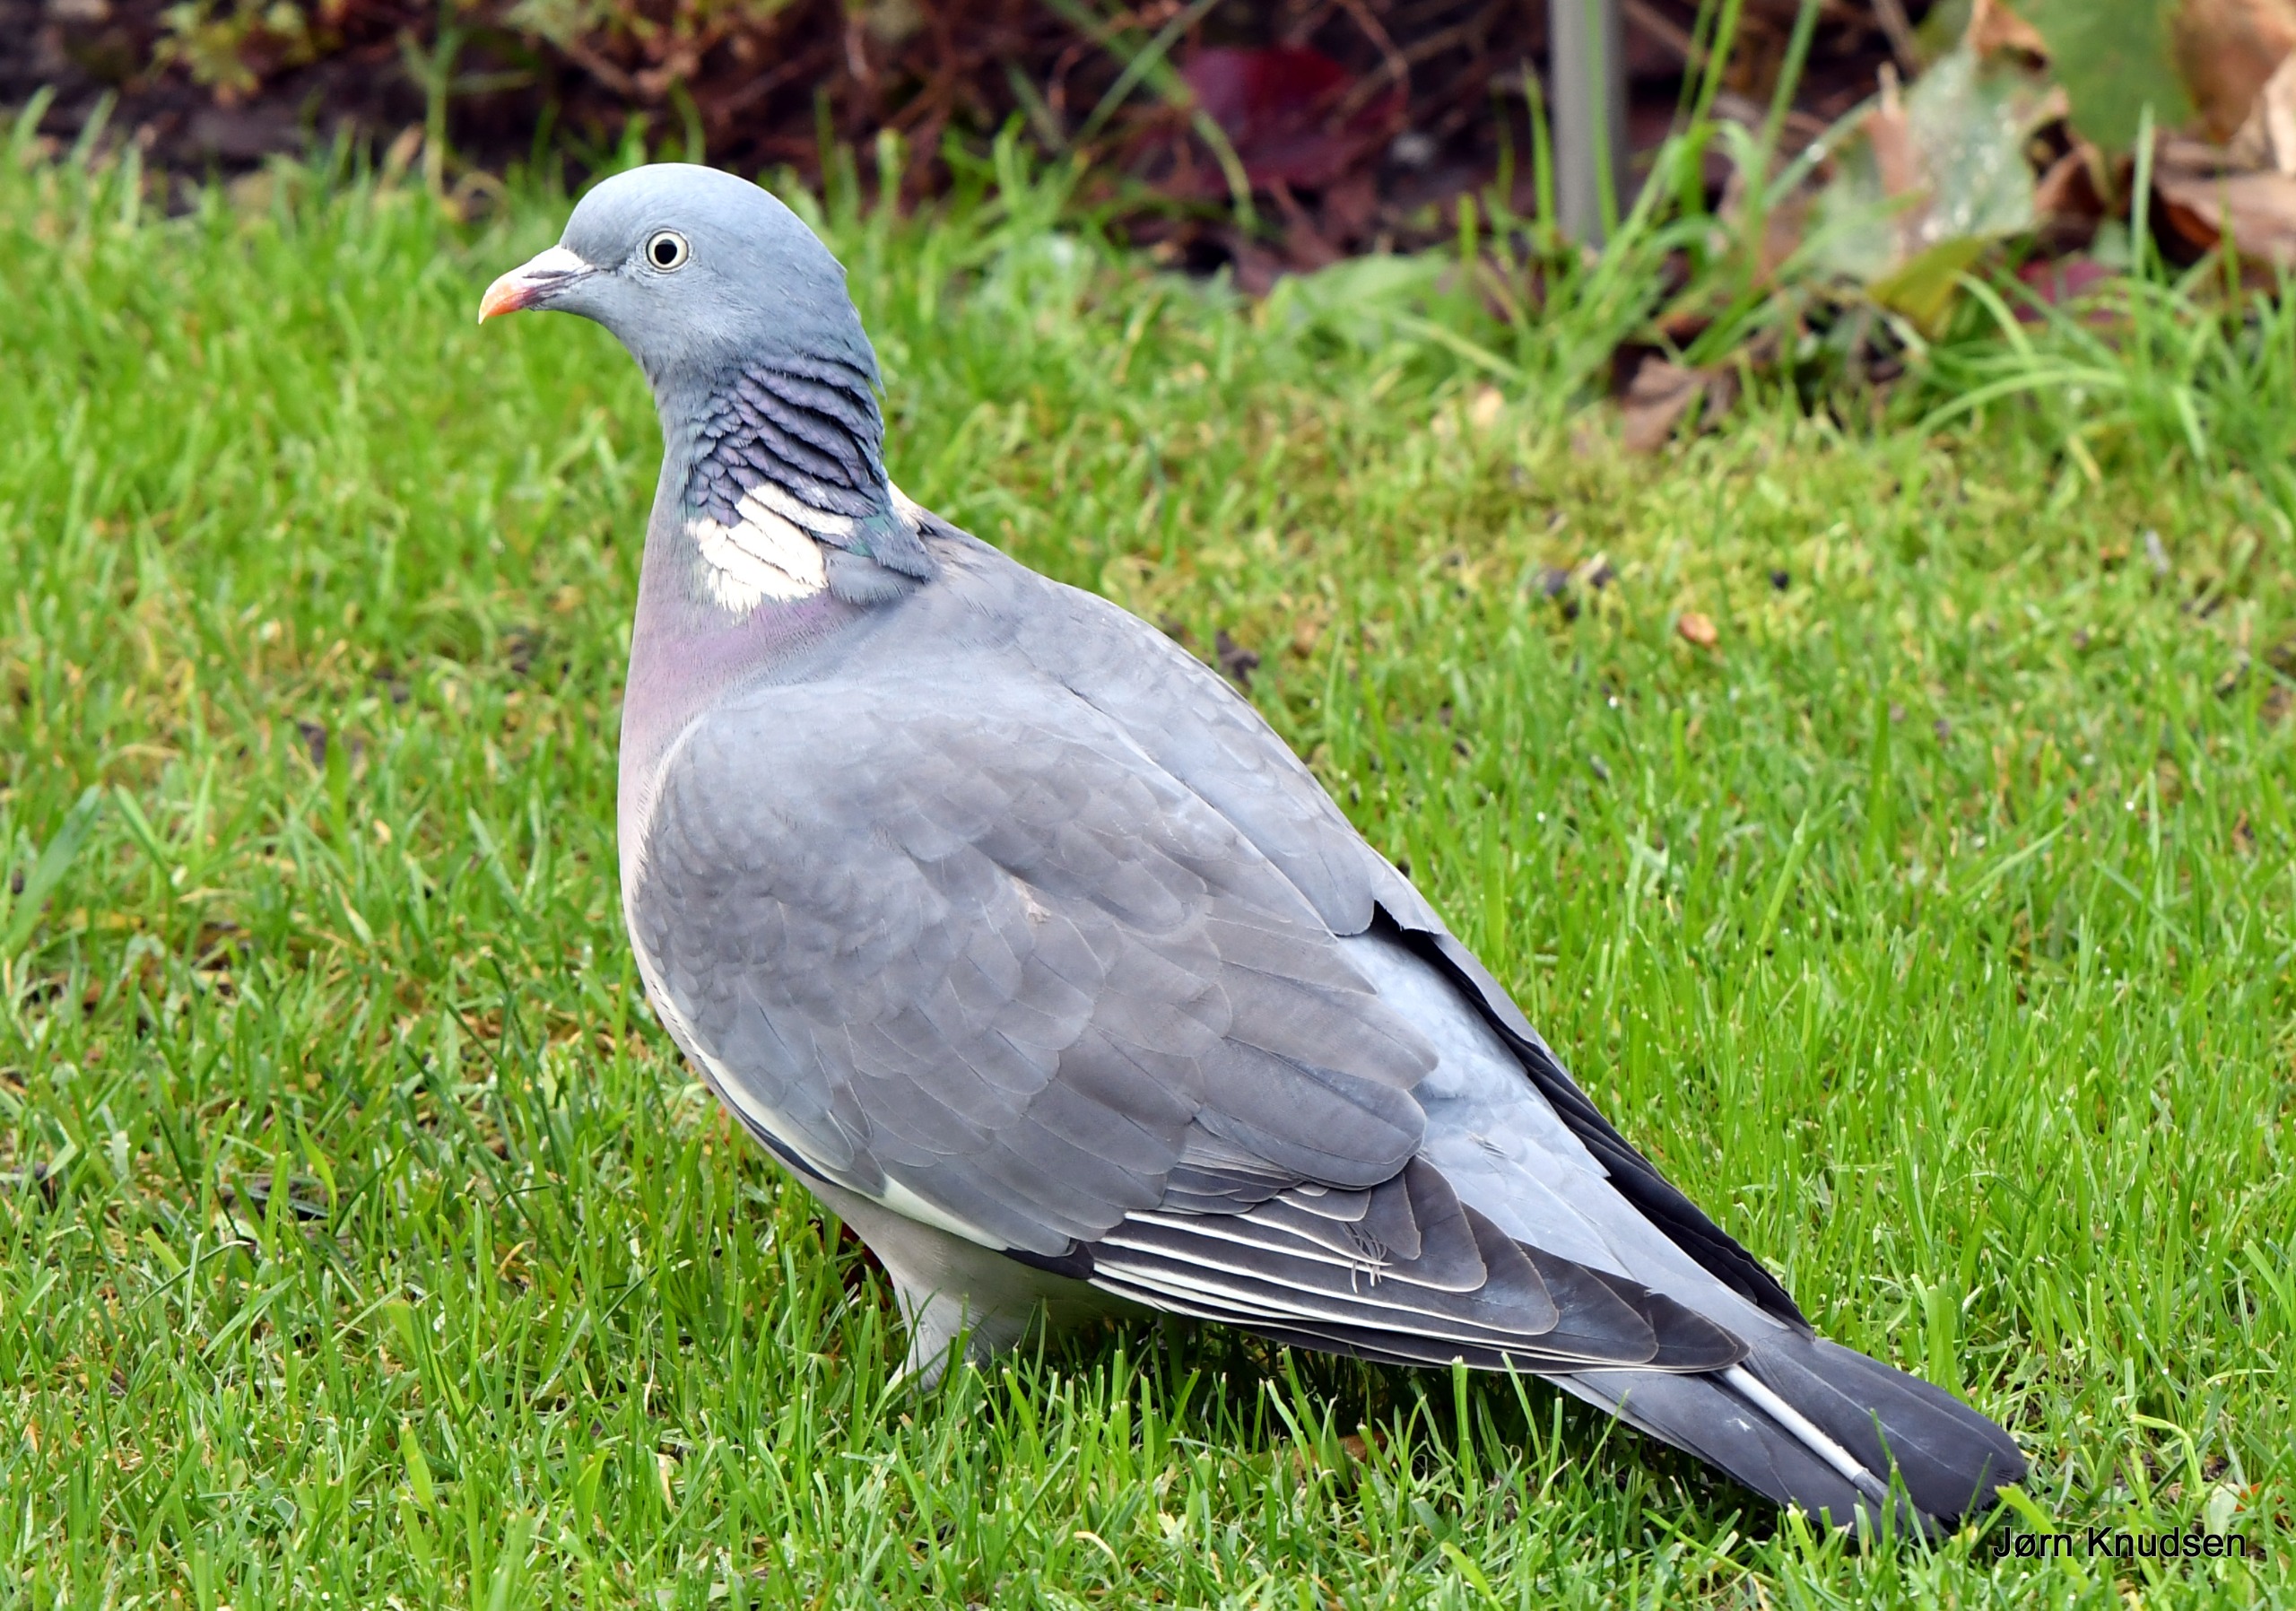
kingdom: Animalia
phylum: Chordata
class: Aves
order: Columbiformes
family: Columbidae
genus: Columba
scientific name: Columba palumbus
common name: Ringdue
